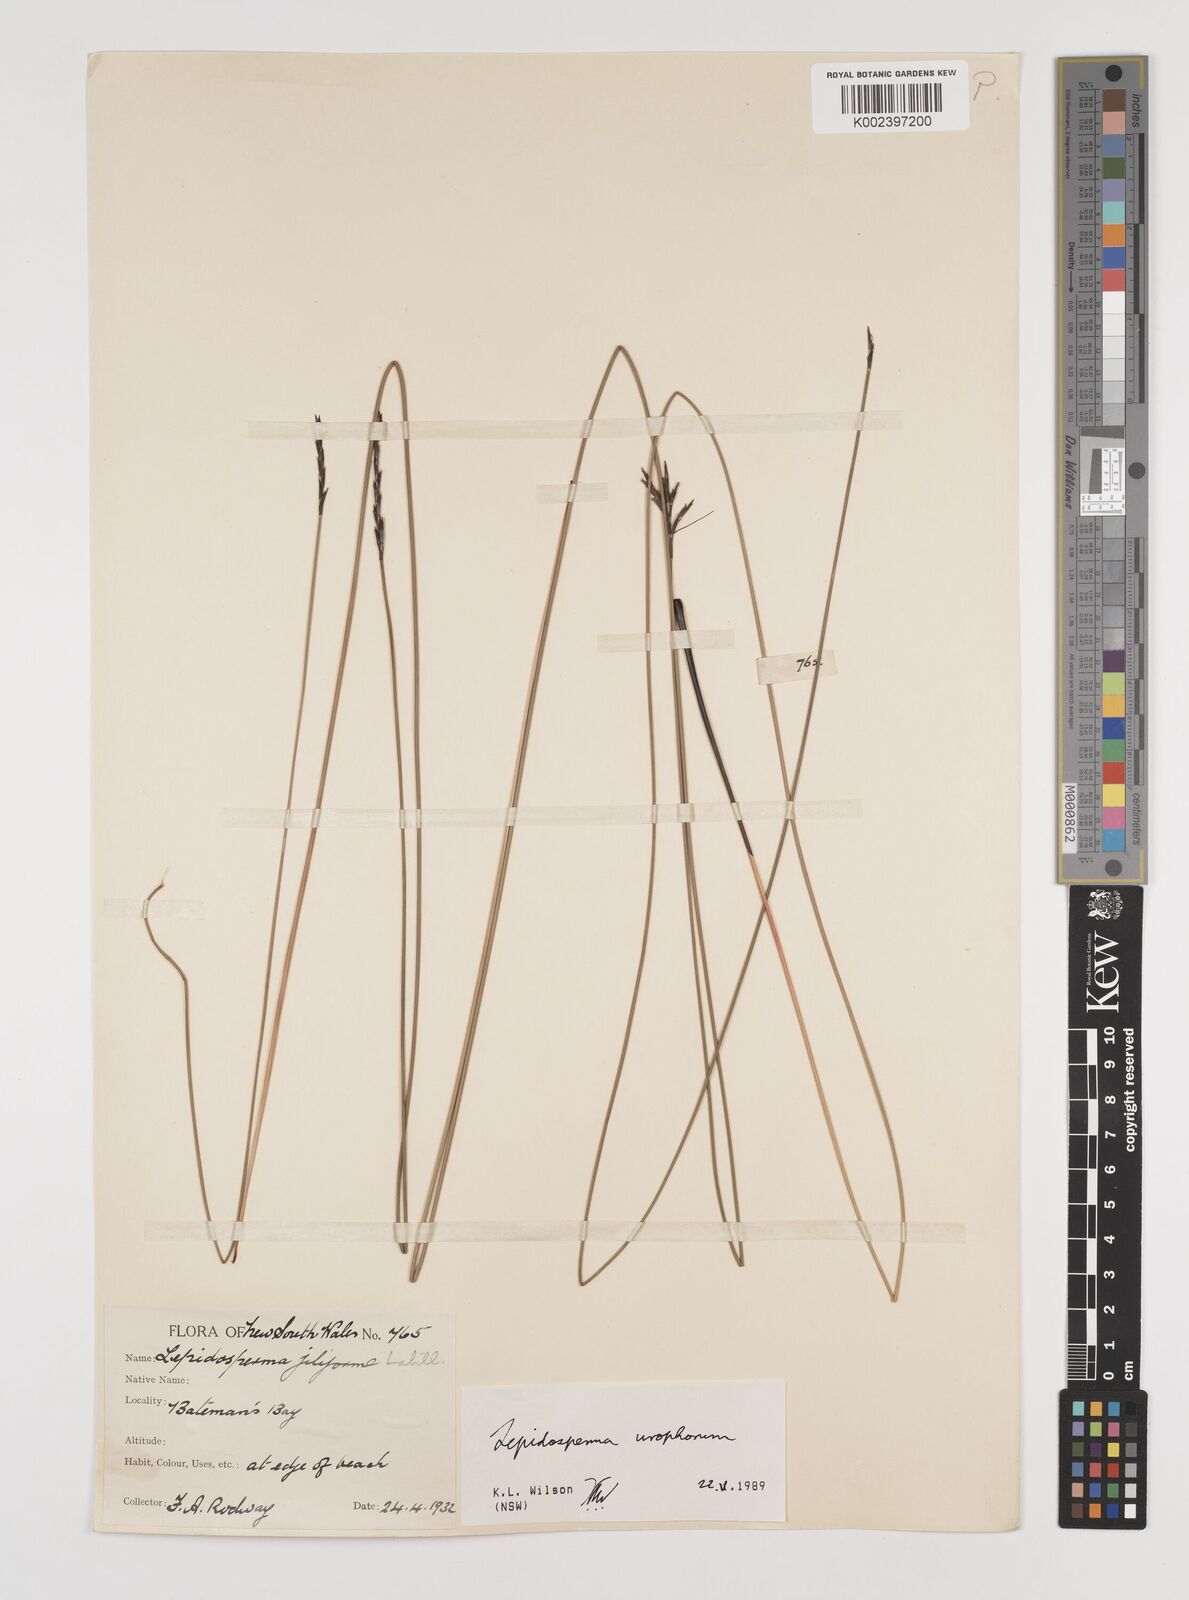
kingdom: Plantae
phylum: Tracheophyta
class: Liliopsida
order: Poales
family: Cyperaceae
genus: Lepidosperma
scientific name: Lepidosperma urophorum
